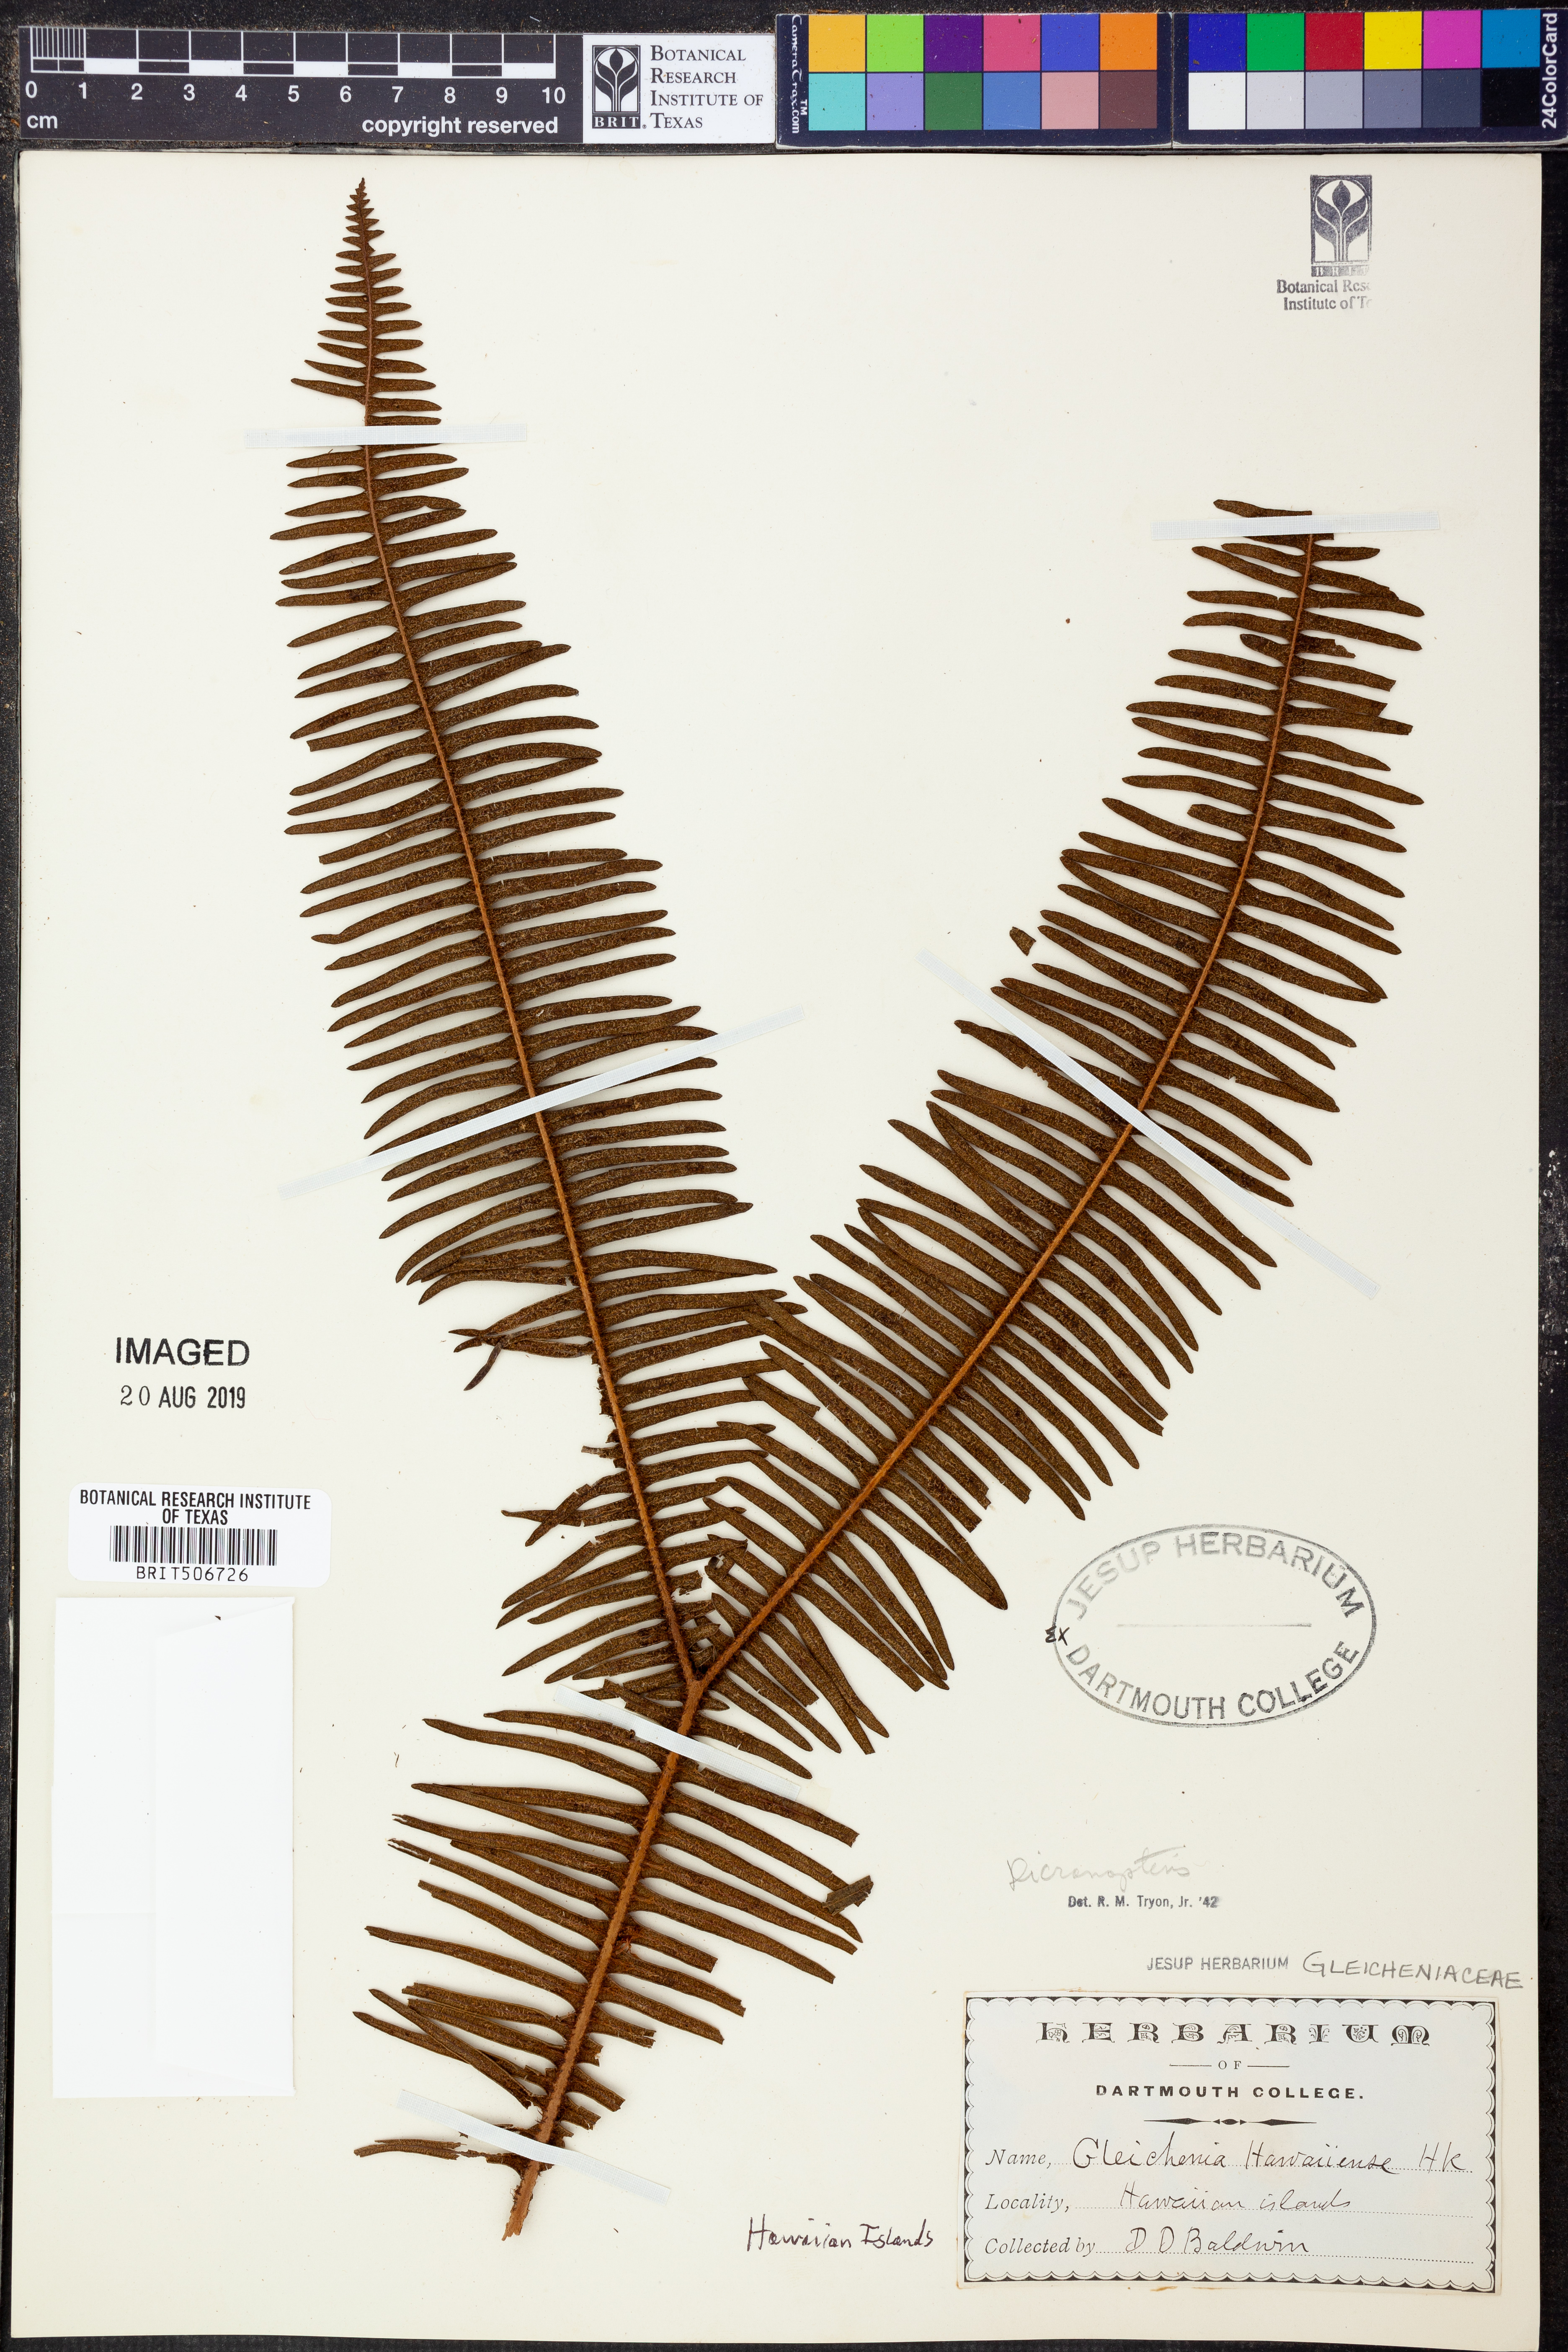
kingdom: Plantae
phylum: Tracheophyta
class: Polypodiopsida
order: Gleicheniales
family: Gleicheniaceae
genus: Dicranopteris
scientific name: Dicranopteris
